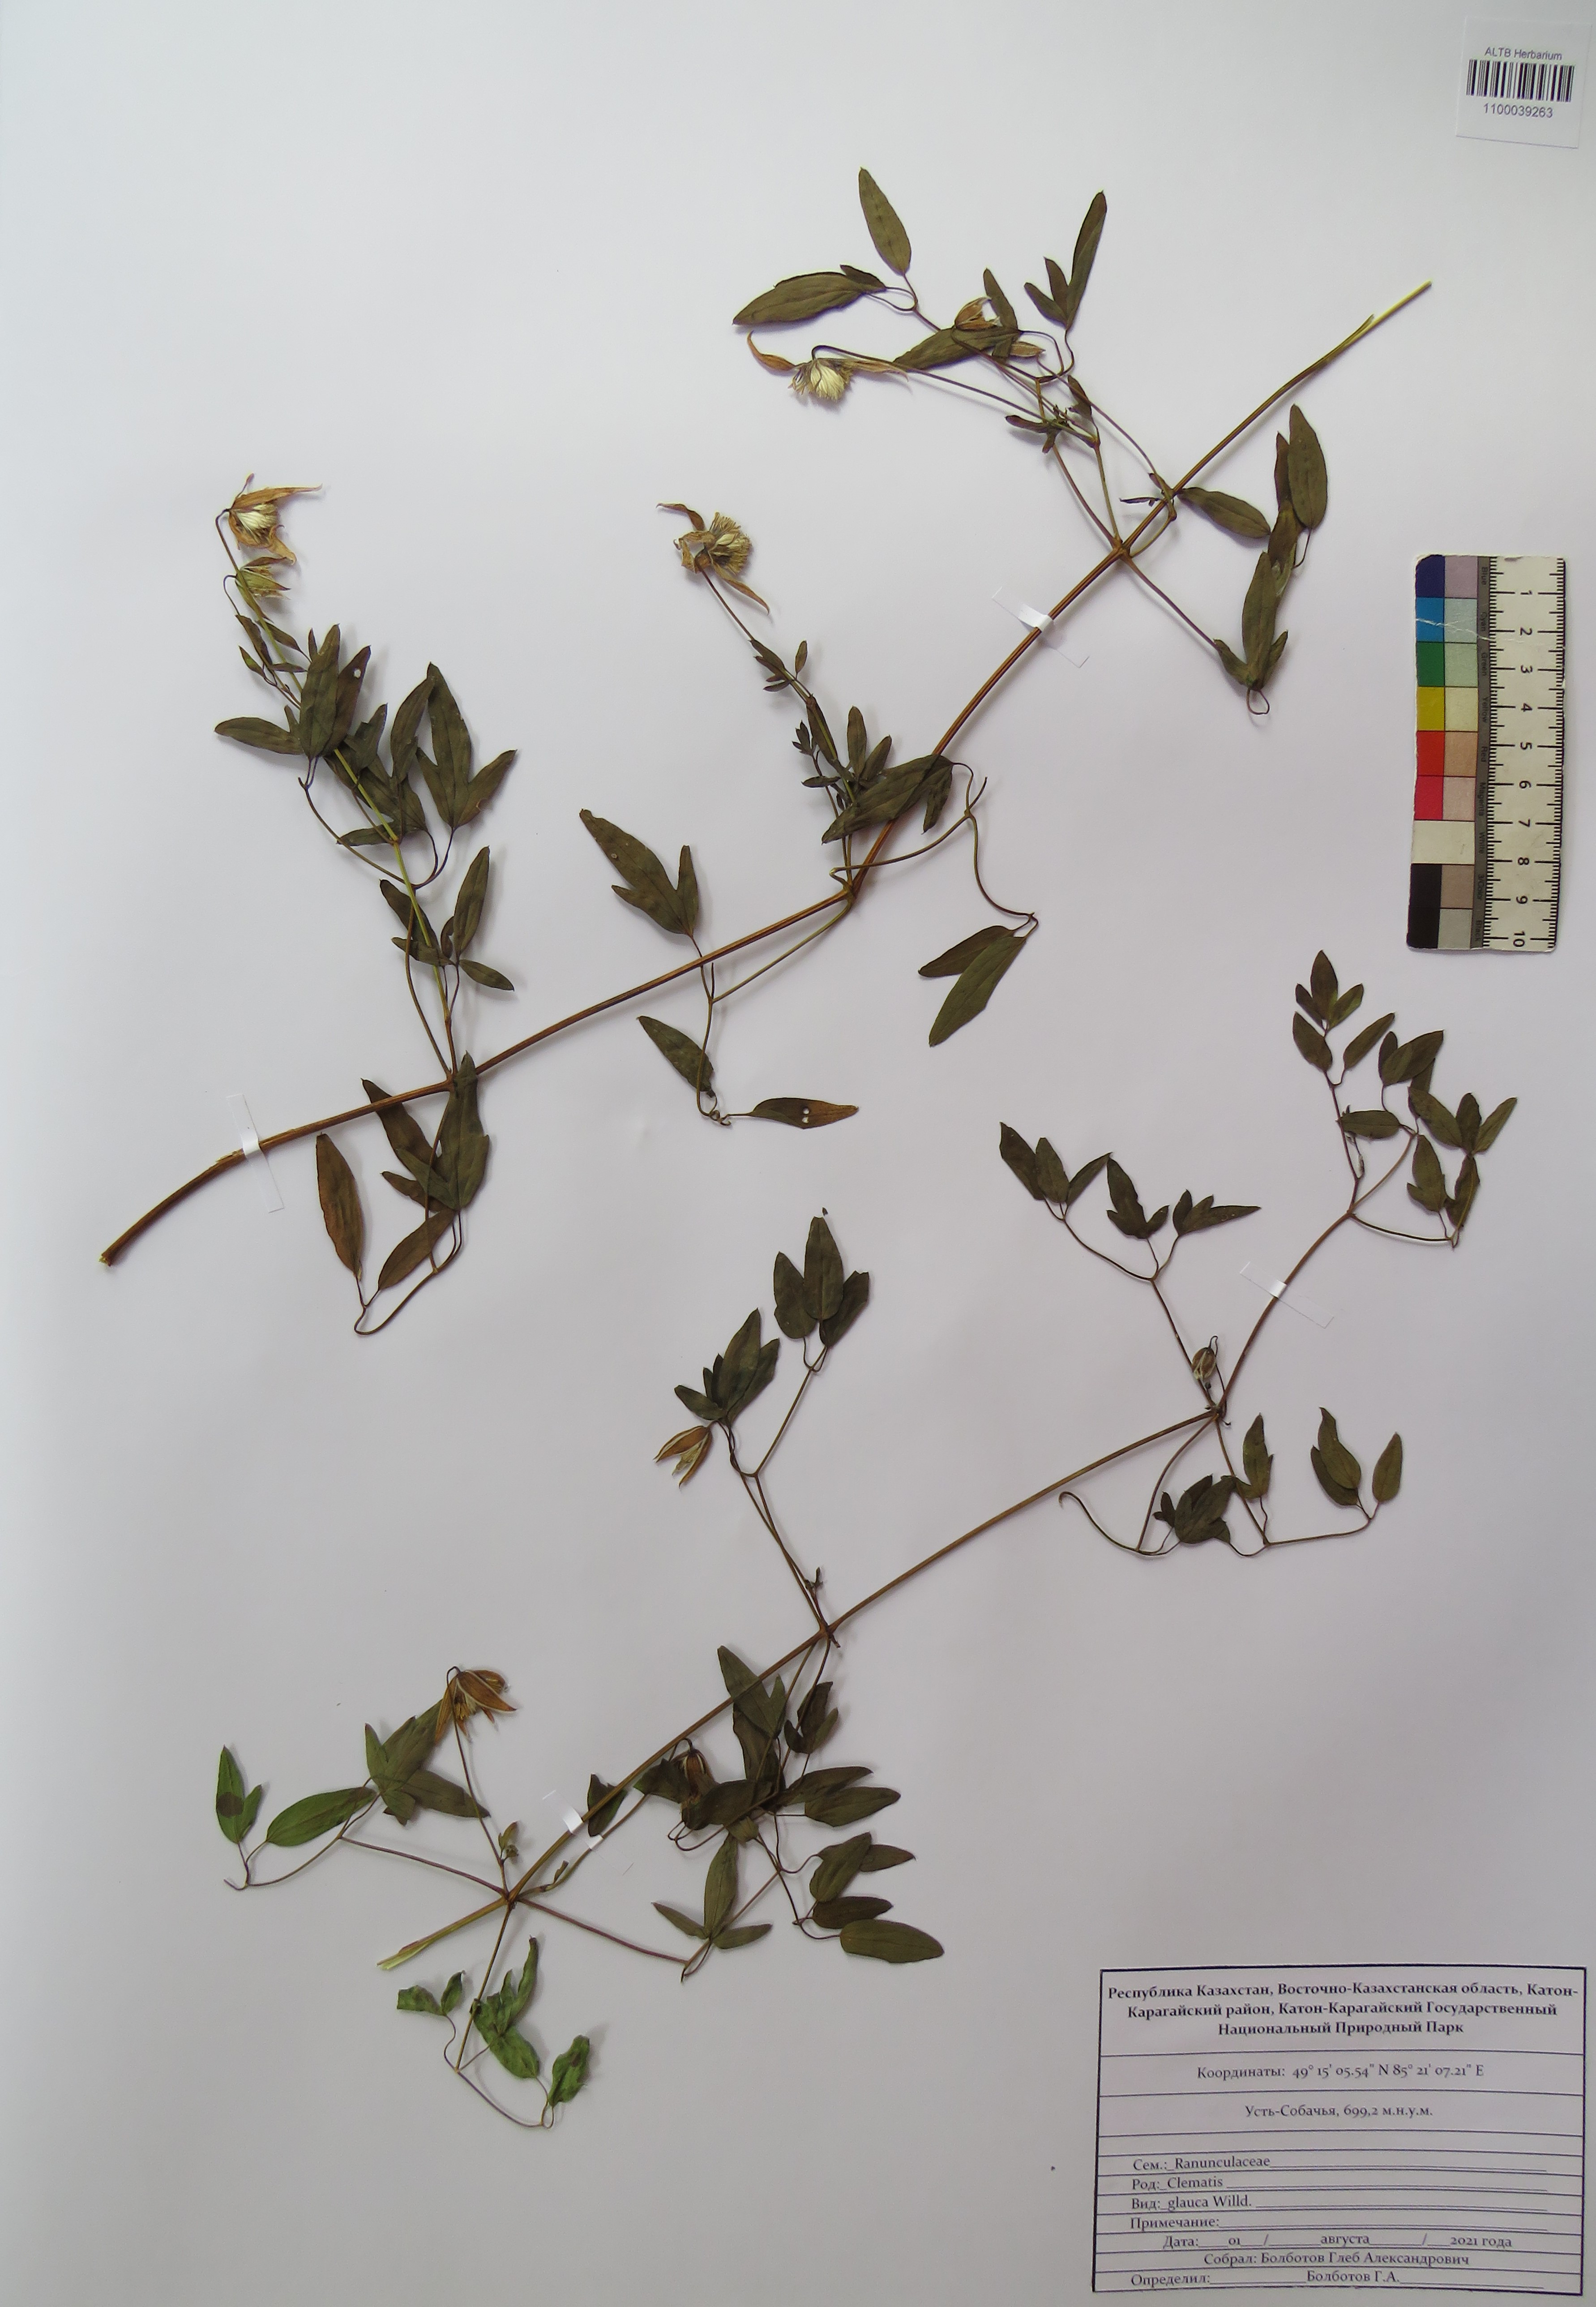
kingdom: Plantae
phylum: Tracheophyta
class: Magnoliopsida
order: Ranunculales
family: Ranunculaceae
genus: Clematis
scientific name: Clematis glauca
